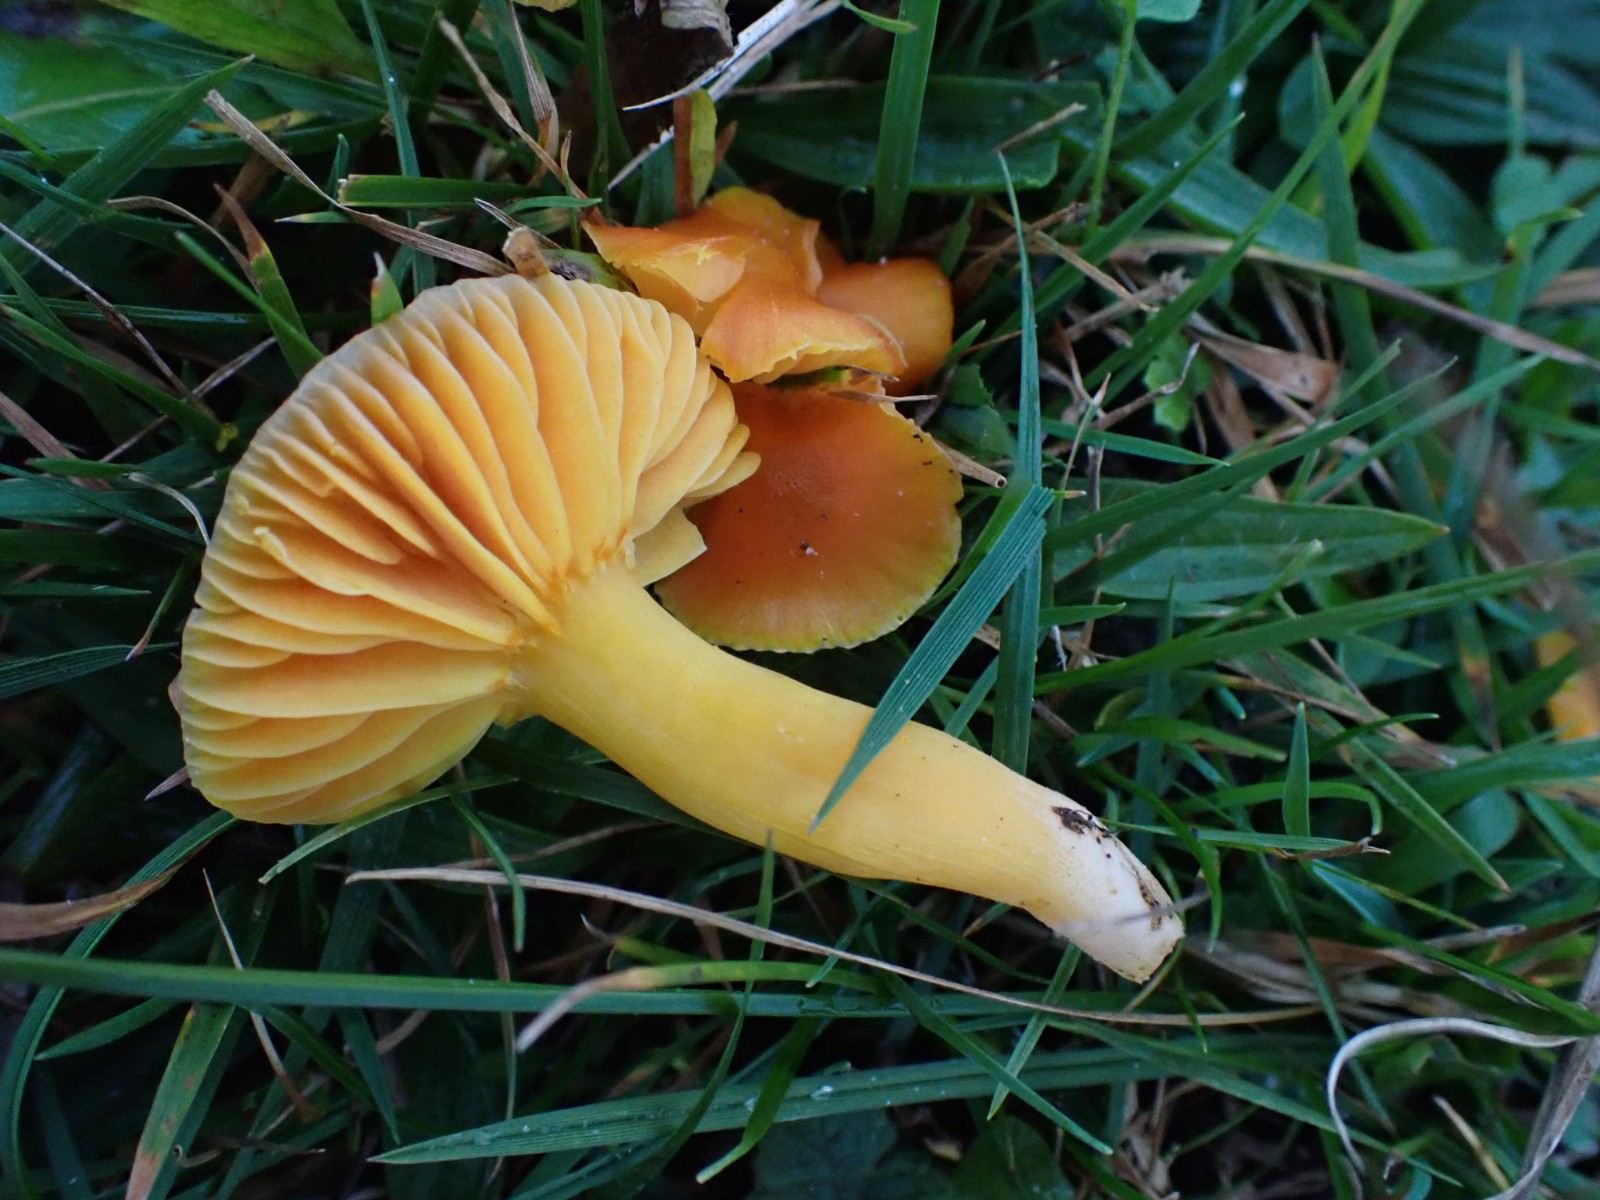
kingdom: Fungi
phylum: Basidiomycota
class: Agaricomycetes
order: Agaricales
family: Hygrophoraceae
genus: Hygrocybe
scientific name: Hygrocybe reidii
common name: honning-vokshat
